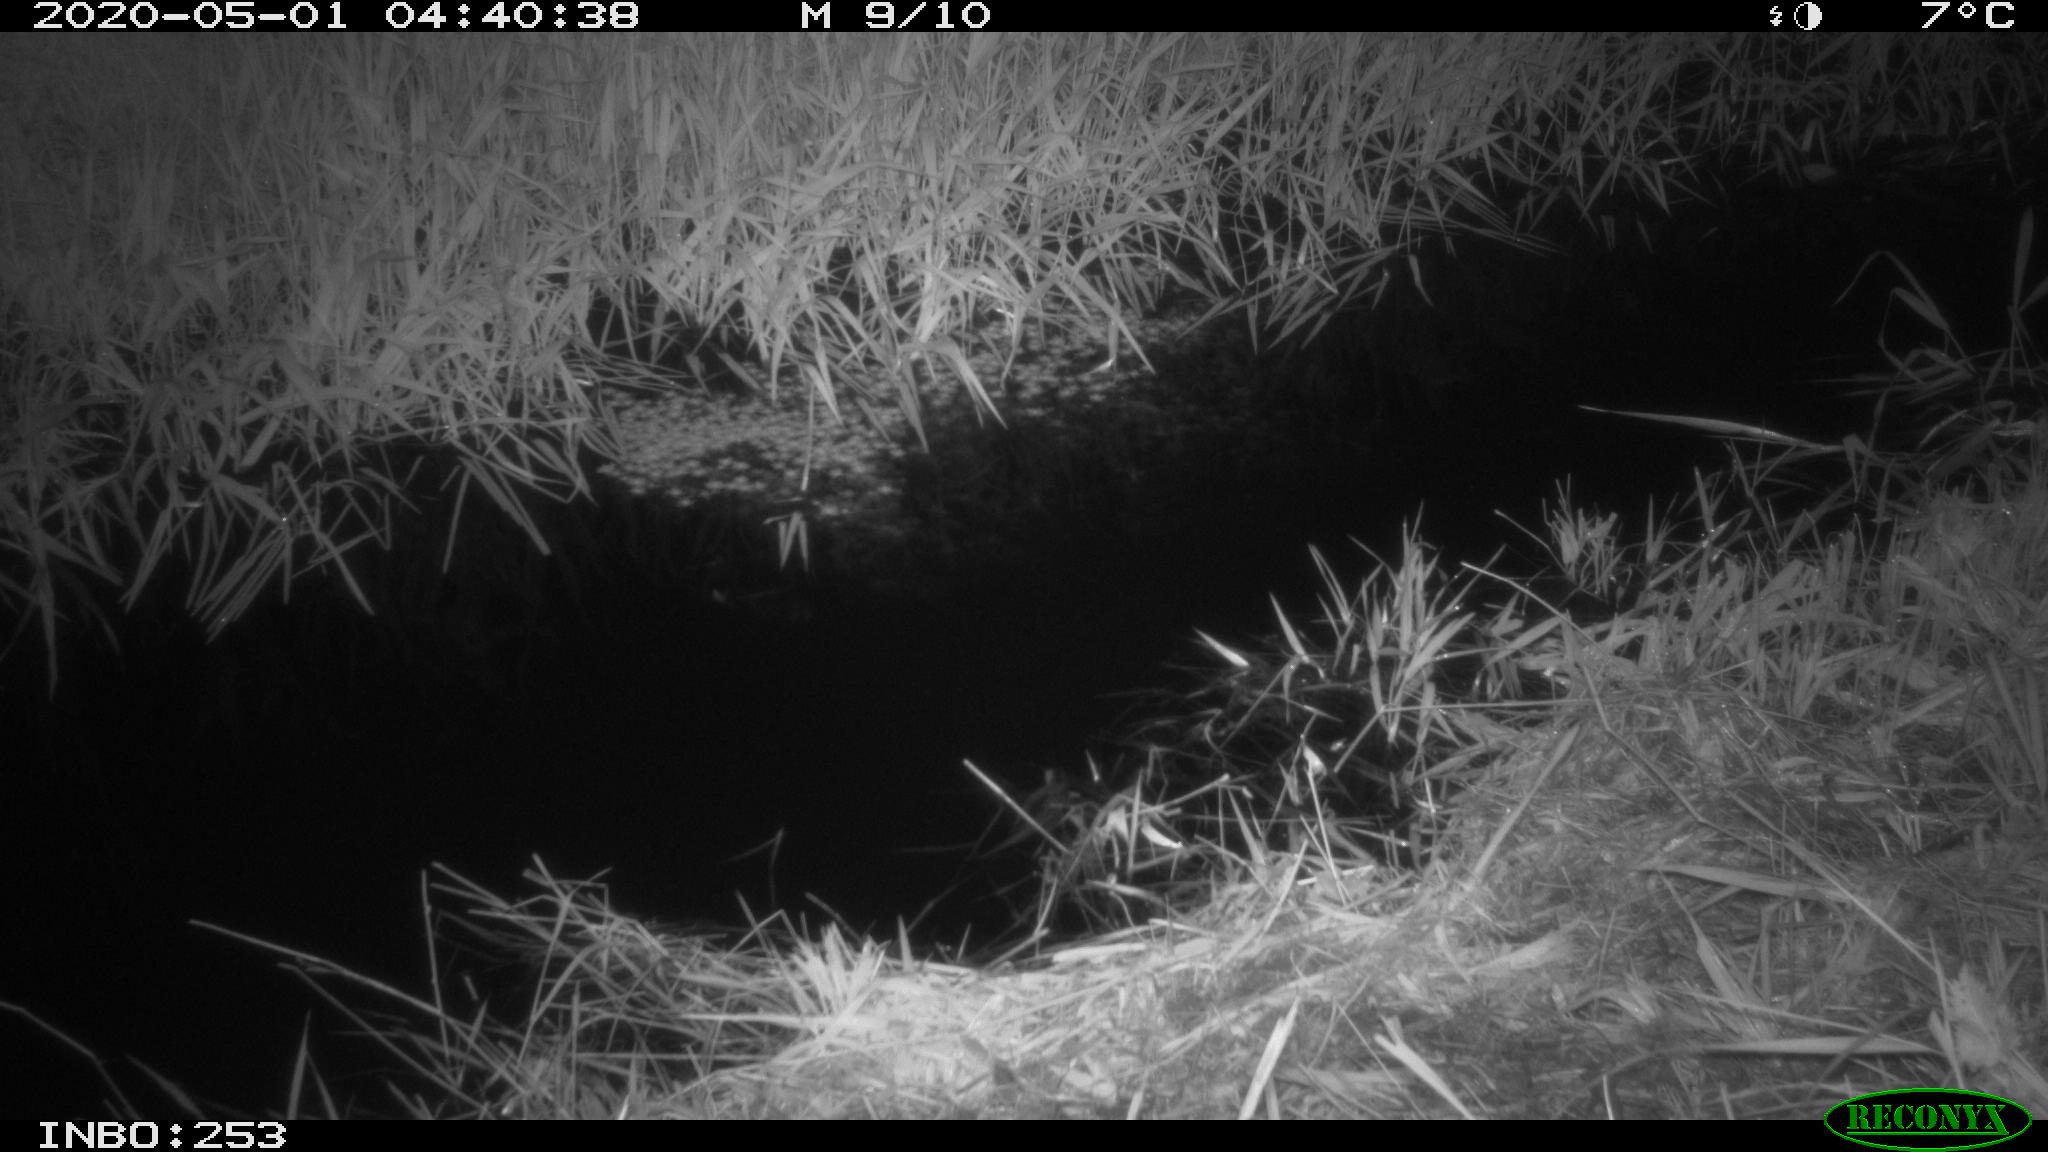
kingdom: Animalia
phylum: Chordata
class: Aves
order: Anseriformes
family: Anatidae
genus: Anas
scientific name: Anas platyrhynchos
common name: Mallard
